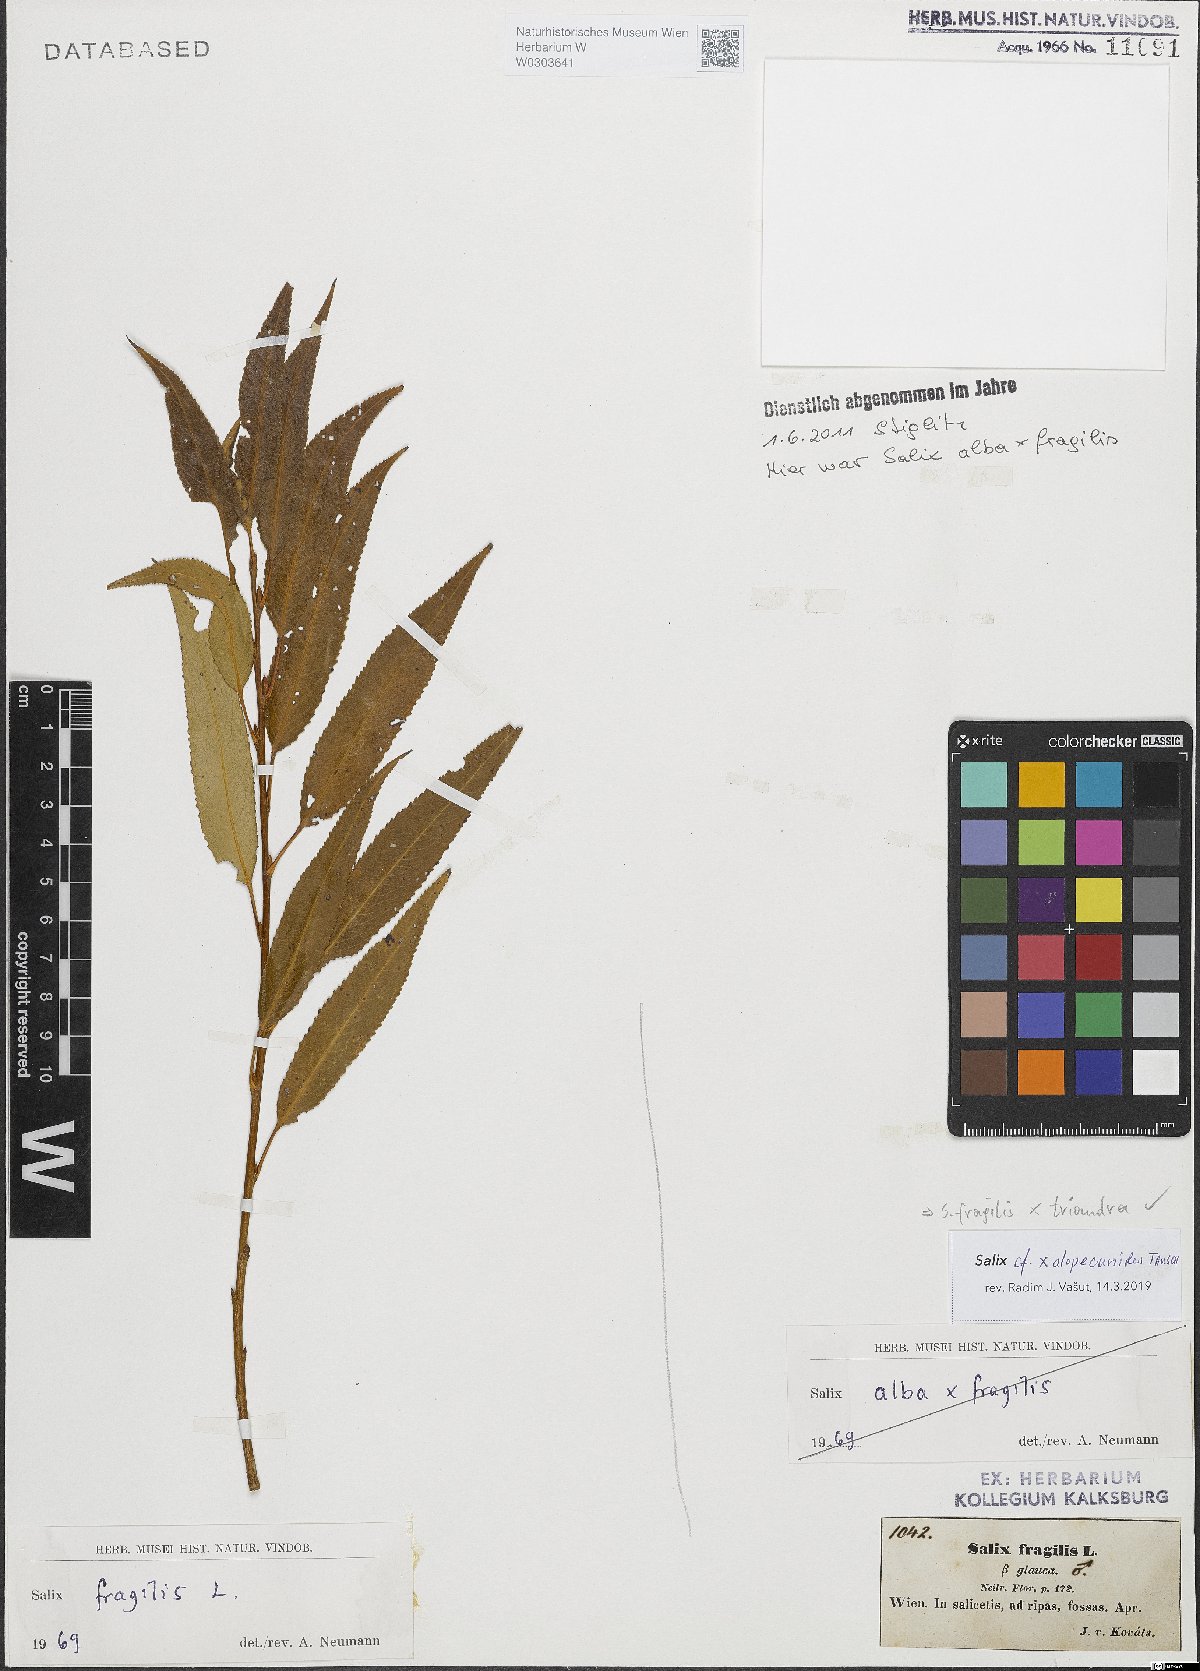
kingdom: Plantae
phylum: Tracheophyta
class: Magnoliopsida
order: Malpighiales
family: Salicaceae
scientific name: Salicaceae
